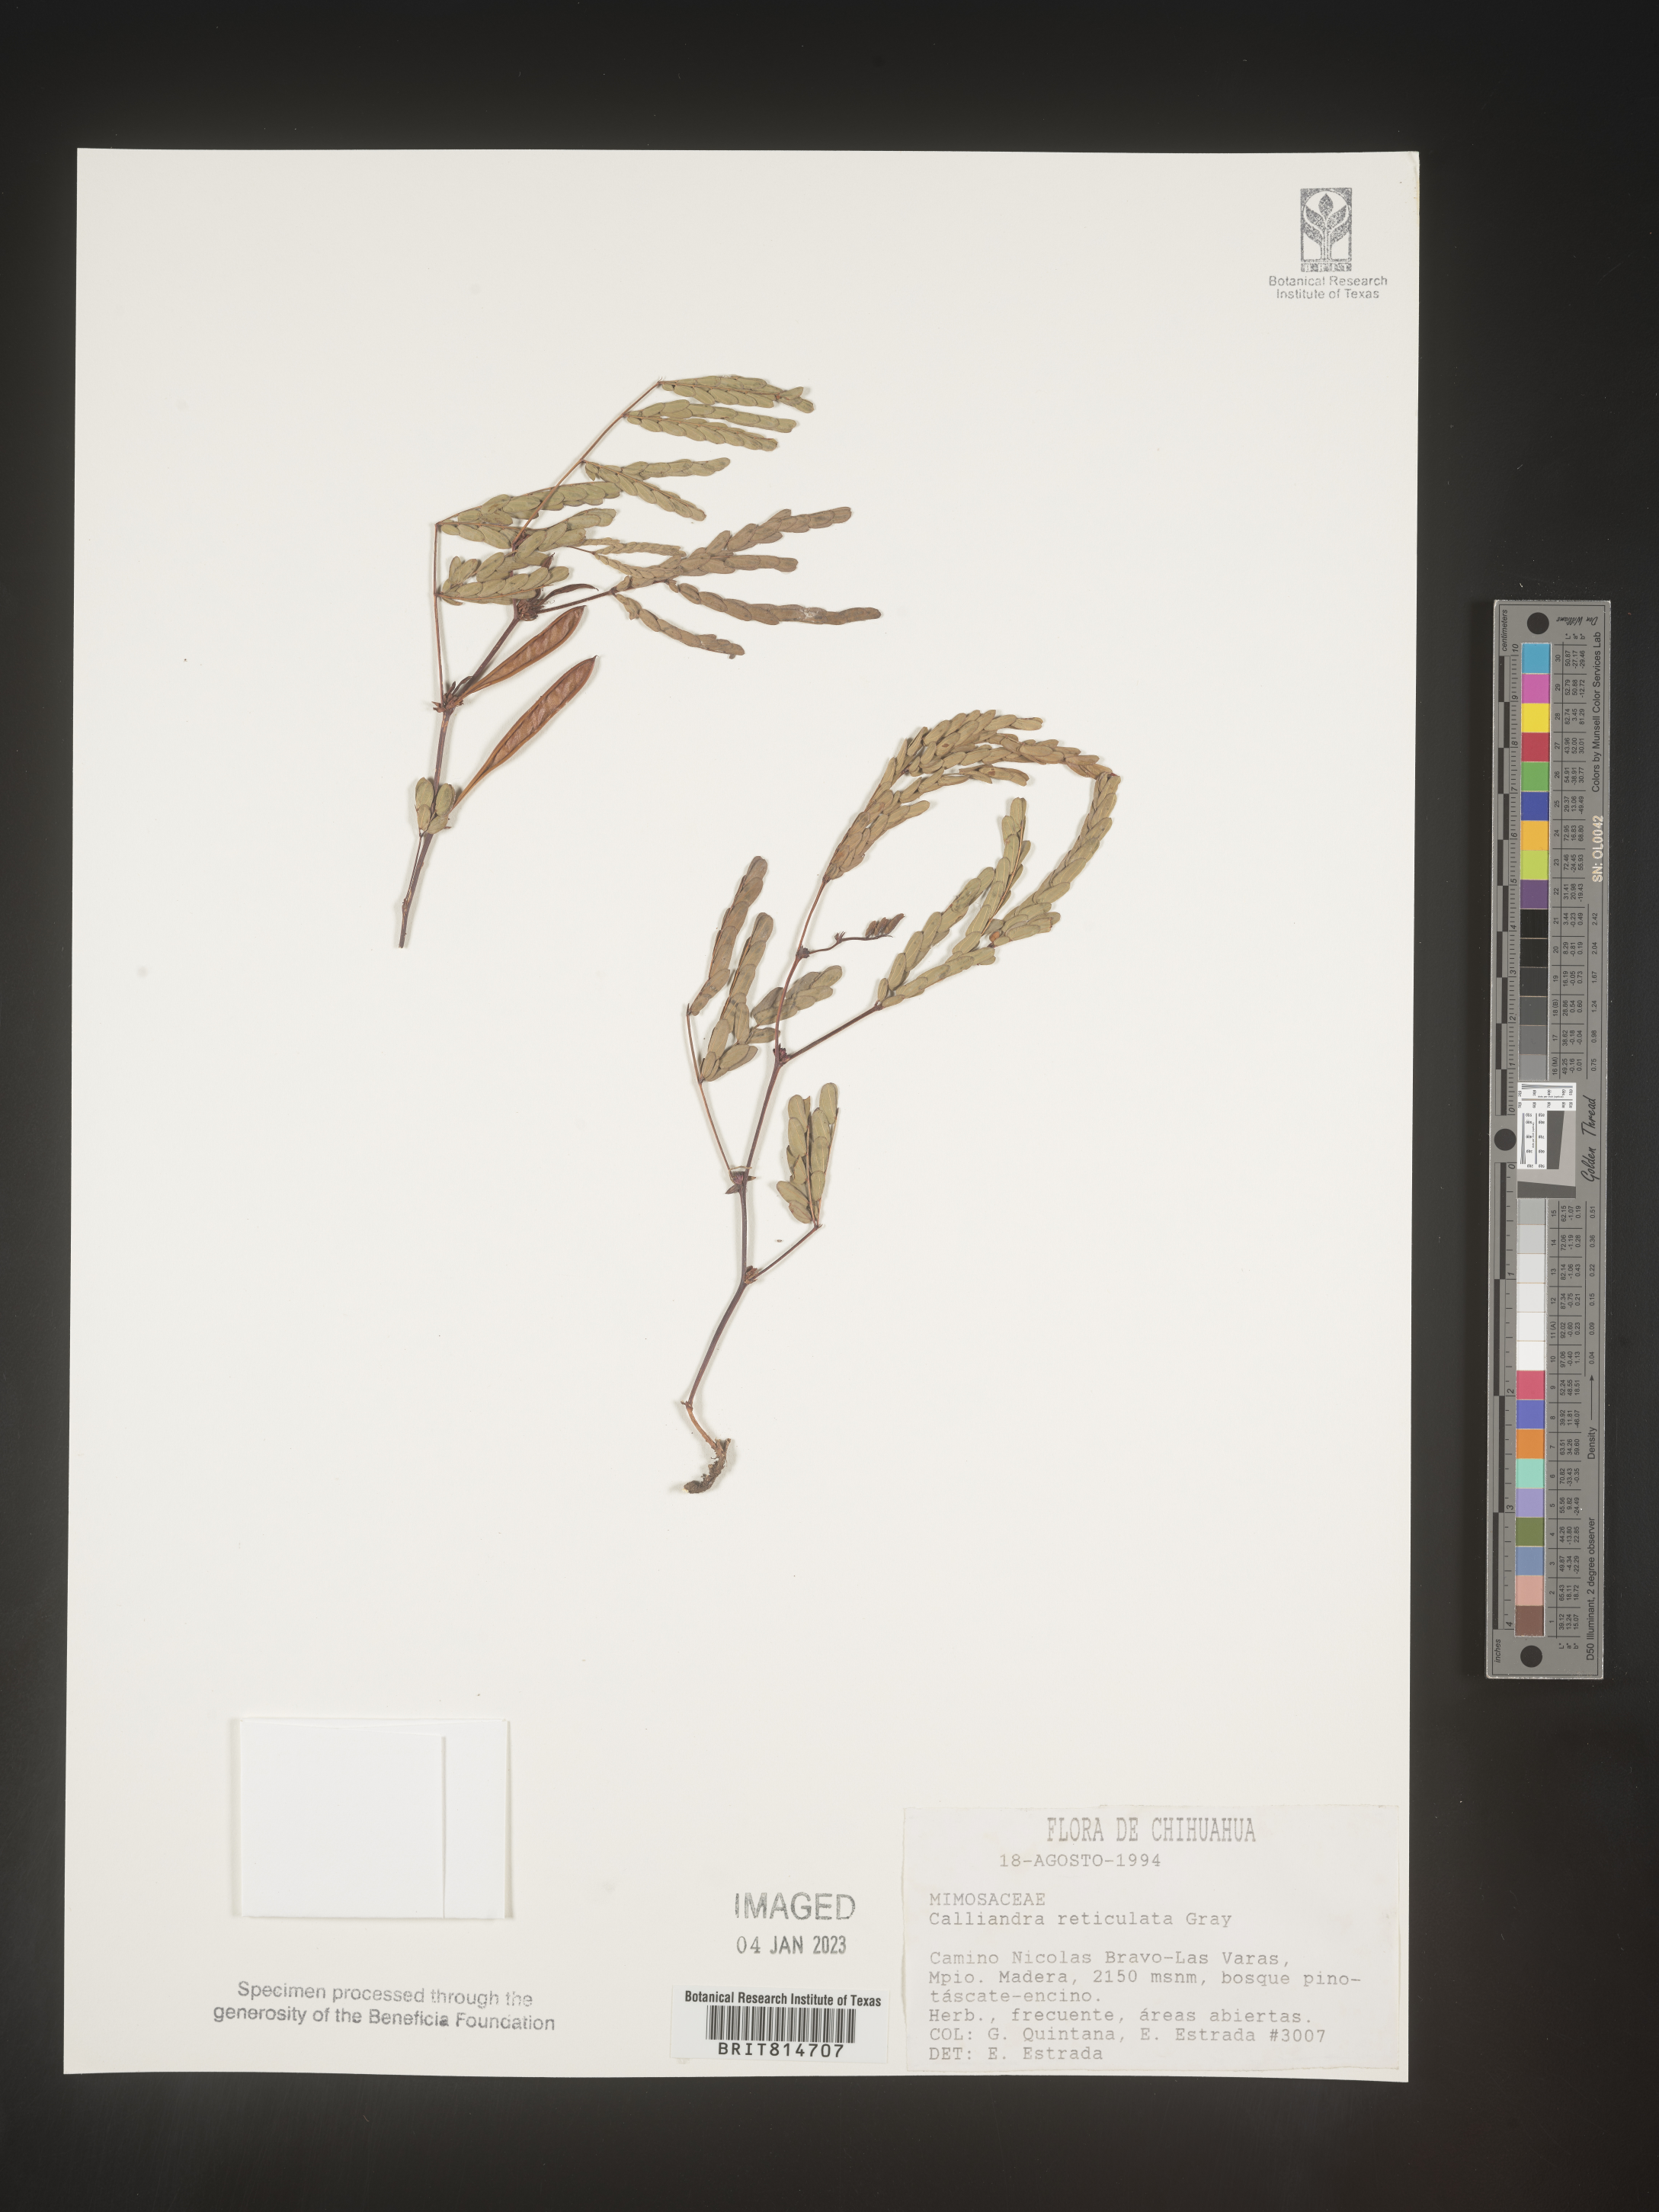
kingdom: Plantae
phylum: Tracheophyta
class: Magnoliopsida
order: Fabales
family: Fabaceae
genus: Calliandra
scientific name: Calliandra
